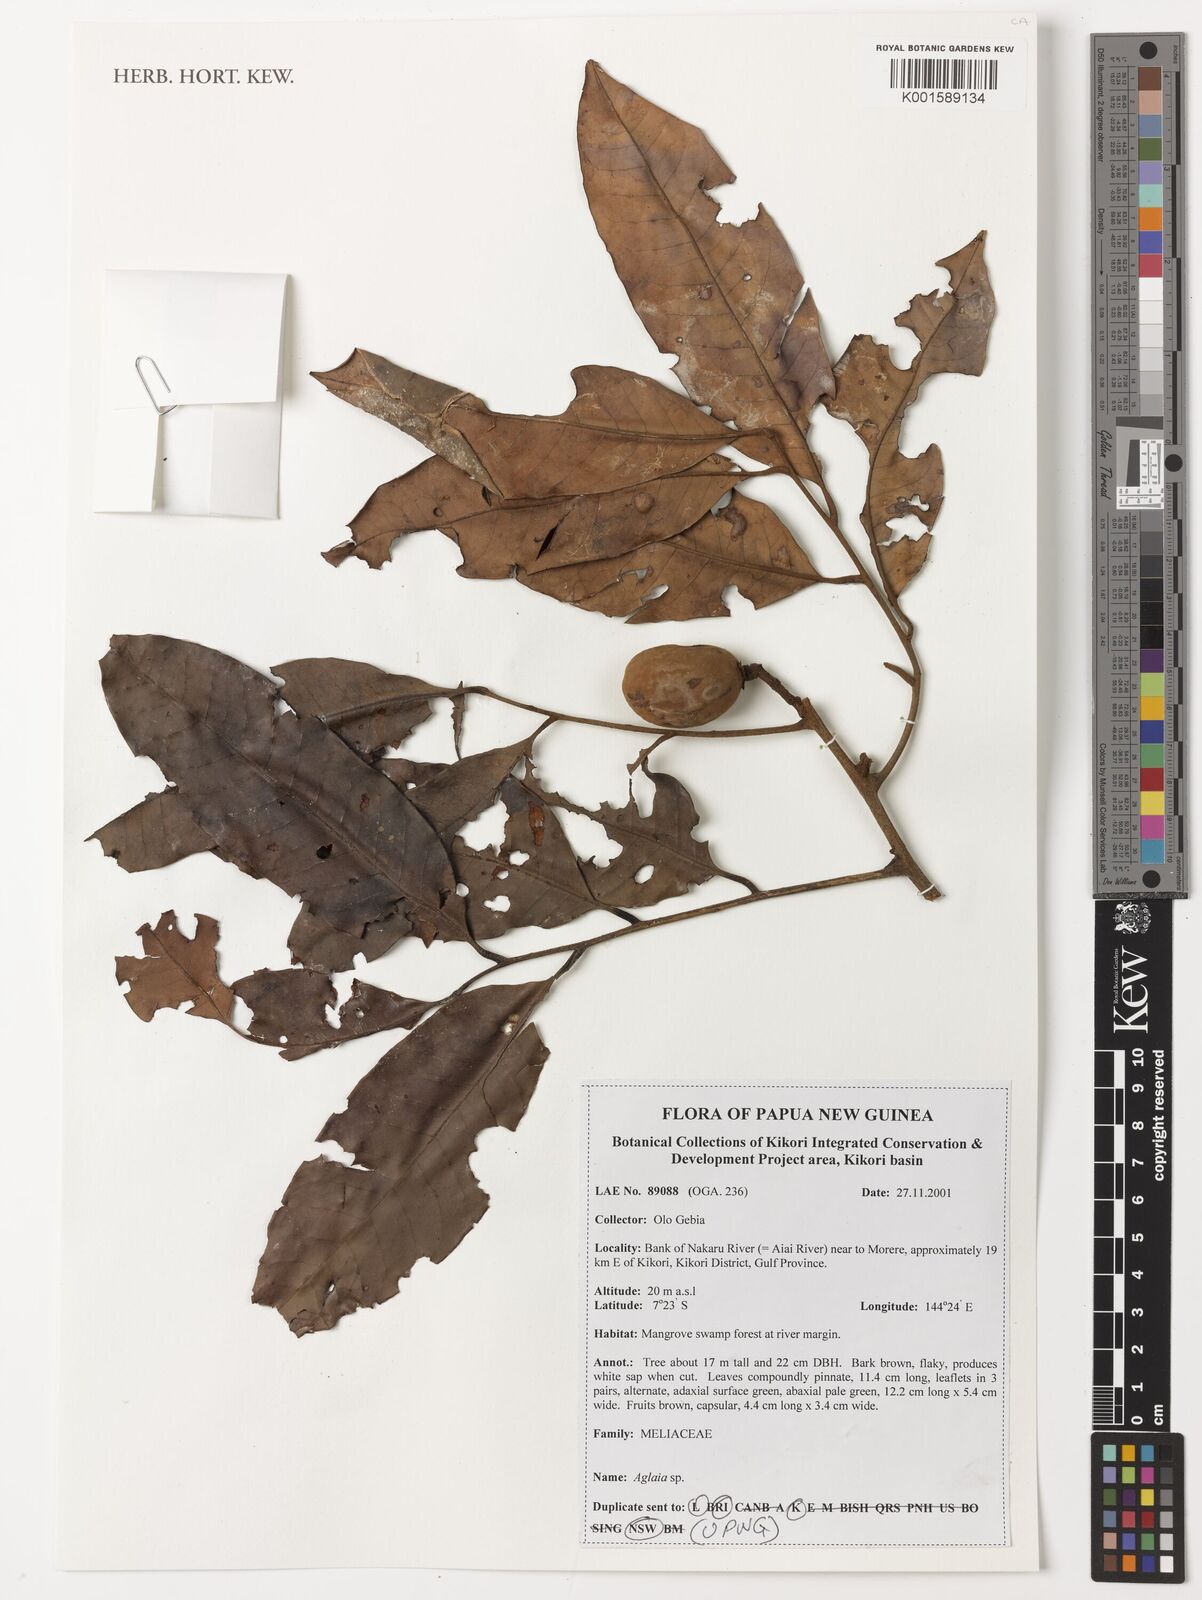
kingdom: Plantae
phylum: Tracheophyta
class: Magnoliopsida
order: Sapindales
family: Meliaceae
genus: Aglaia
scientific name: Aglaia
